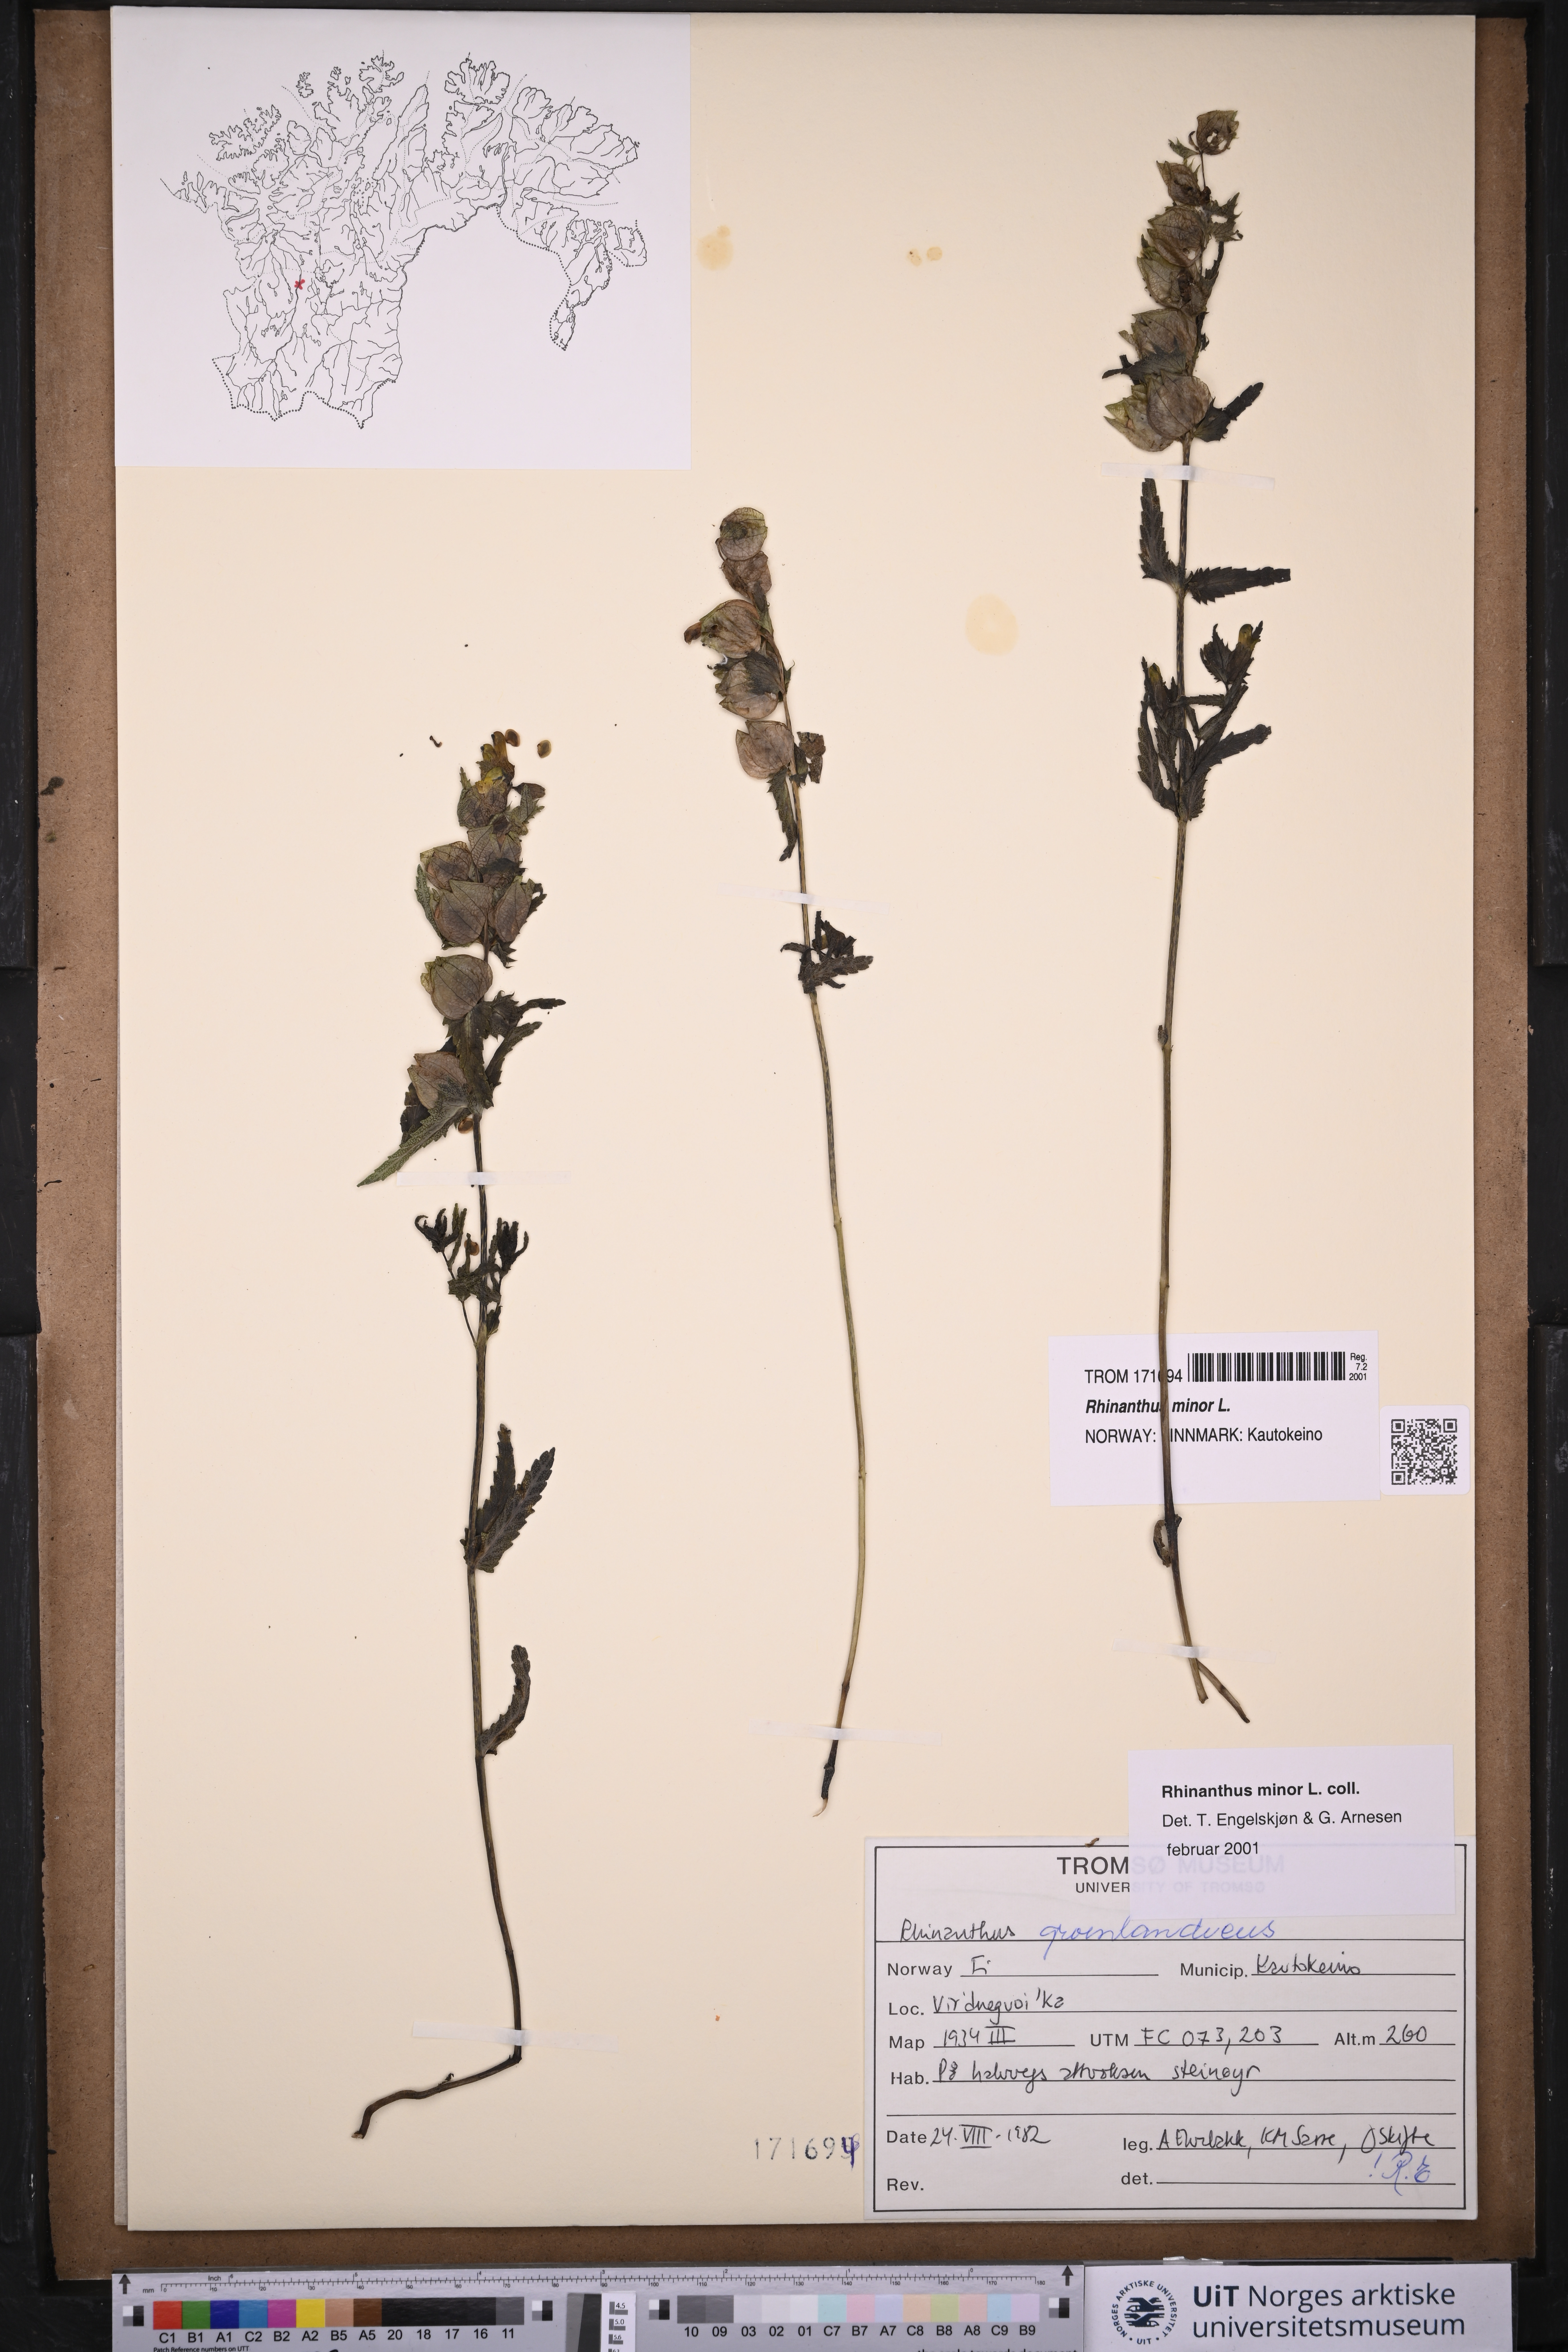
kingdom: Plantae
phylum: Tracheophyta
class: Magnoliopsida
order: Lamiales
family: Orobanchaceae
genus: Rhinanthus
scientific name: Rhinanthus minor
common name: Yellow-rattle
